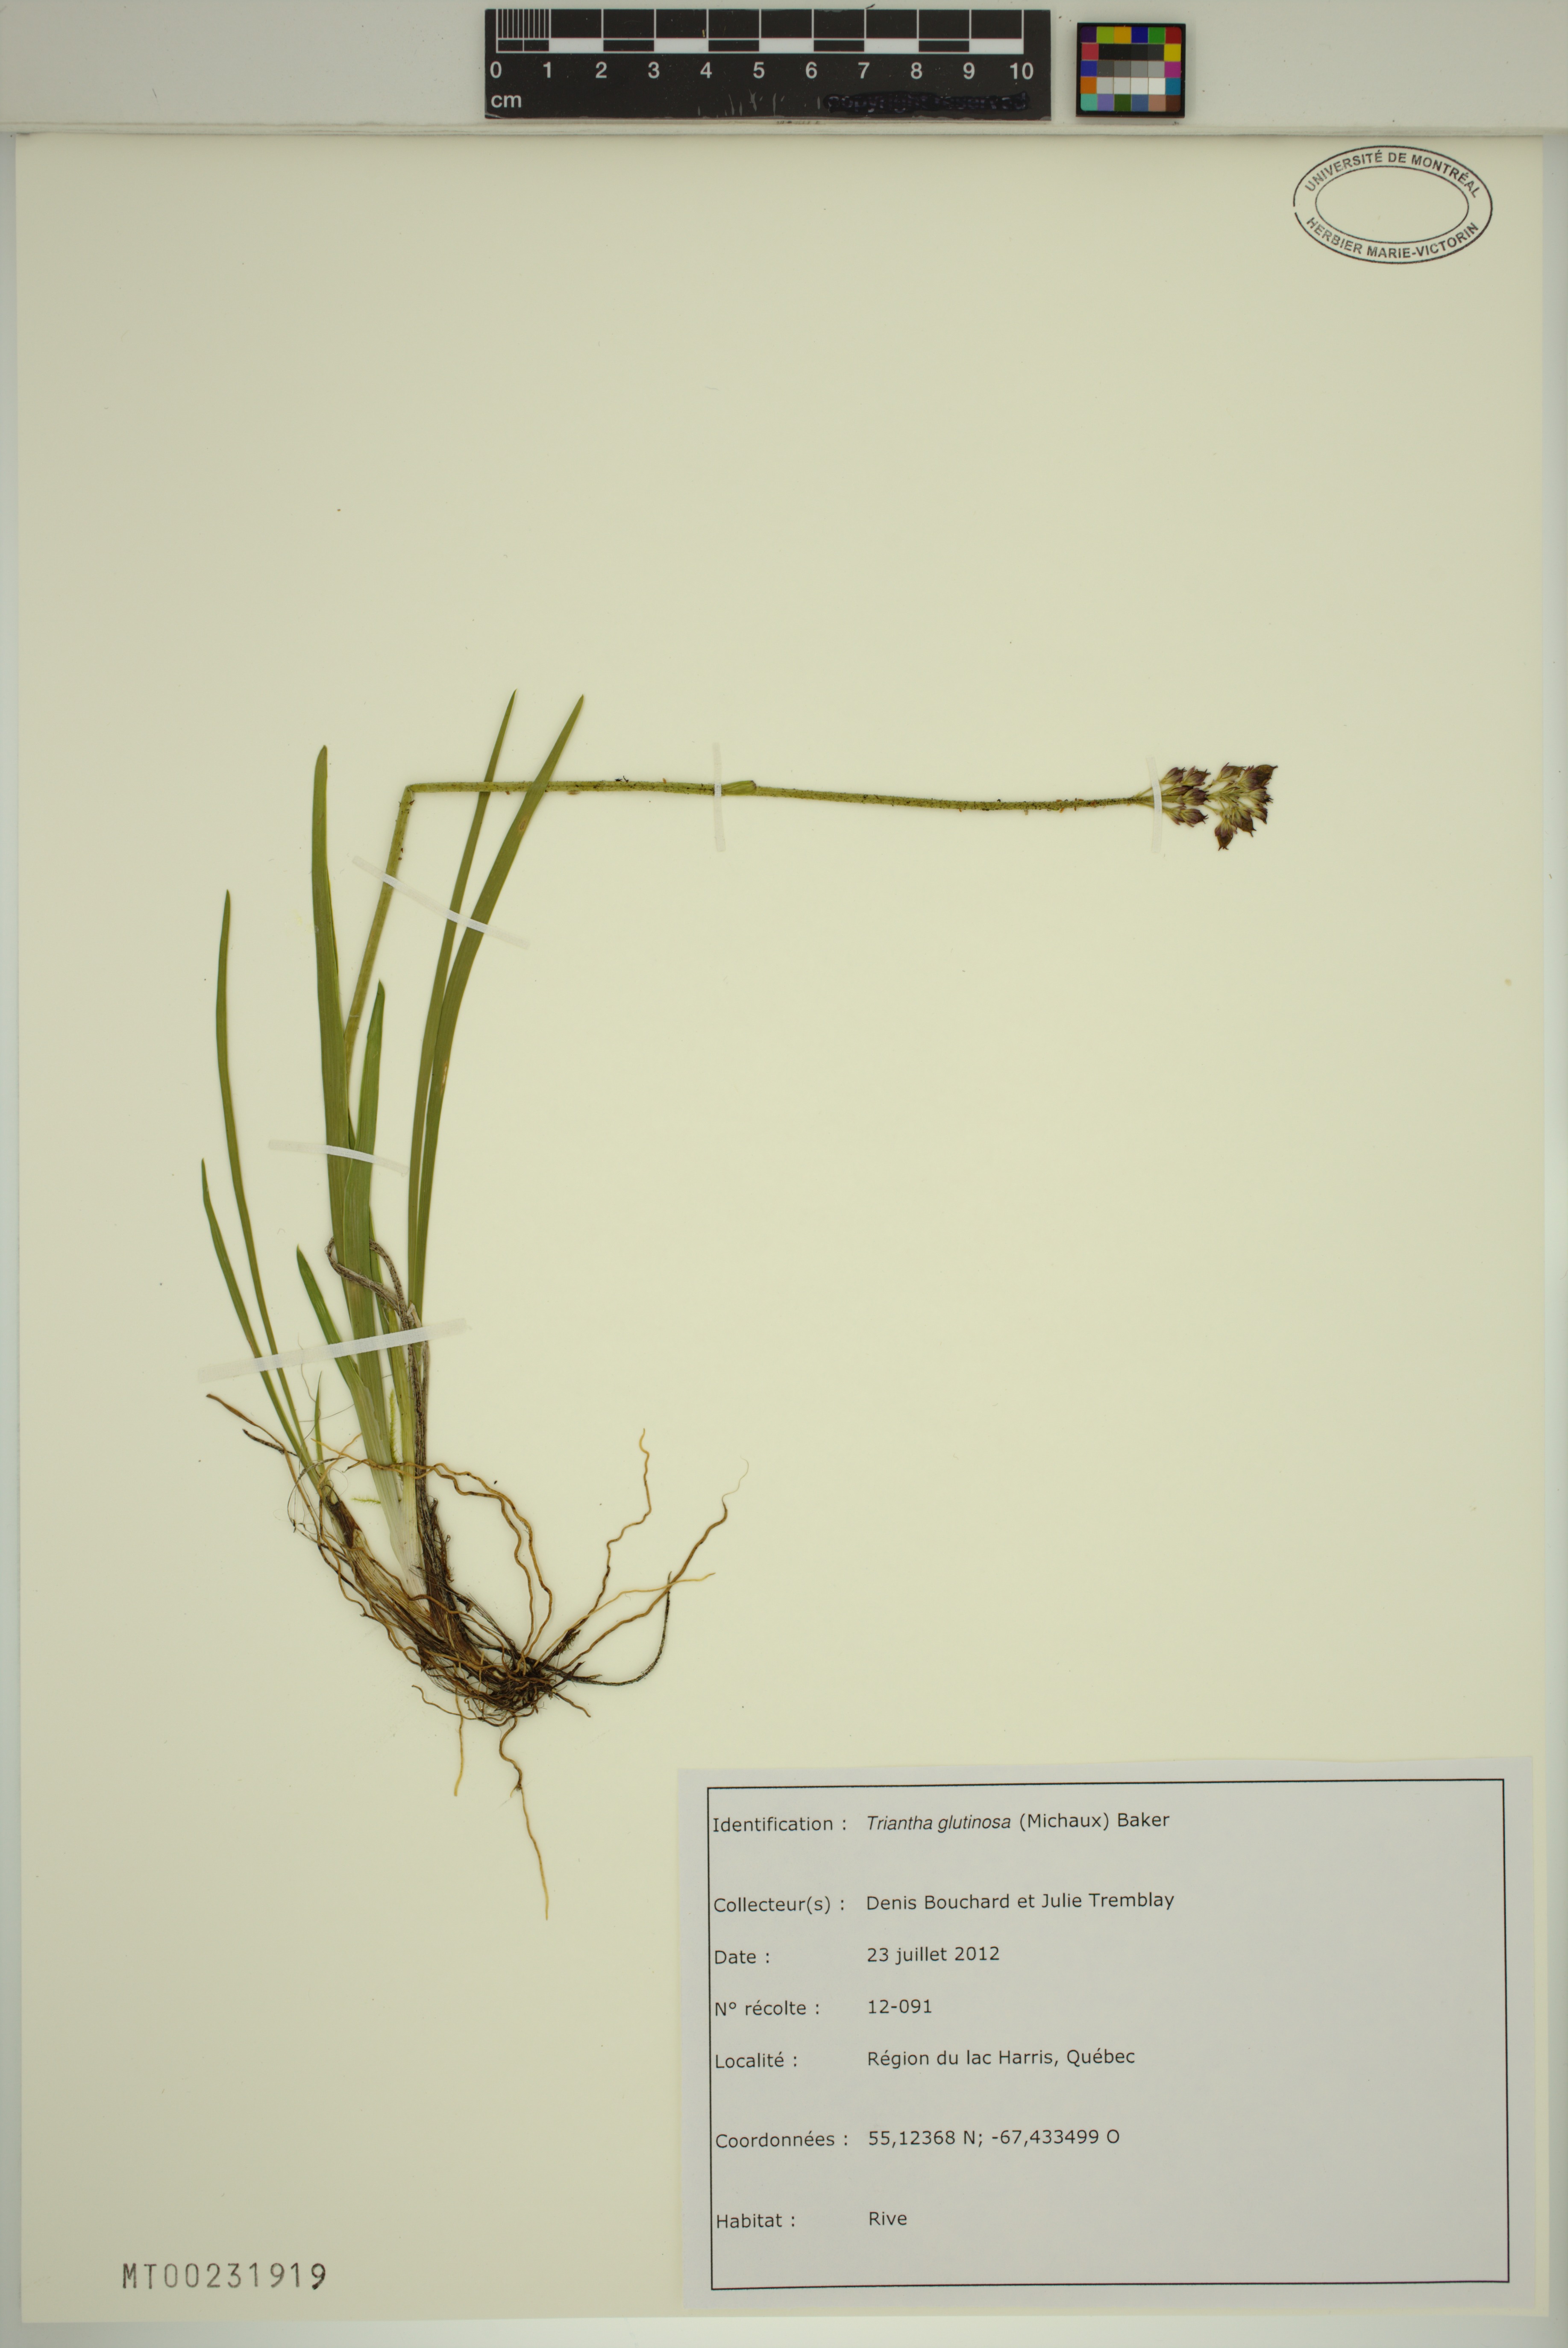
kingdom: Plantae
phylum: Tracheophyta
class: Liliopsida
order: Alismatales
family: Tofieldiaceae
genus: Triantha
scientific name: Triantha glutinosa
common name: Glutinous tofieldia
